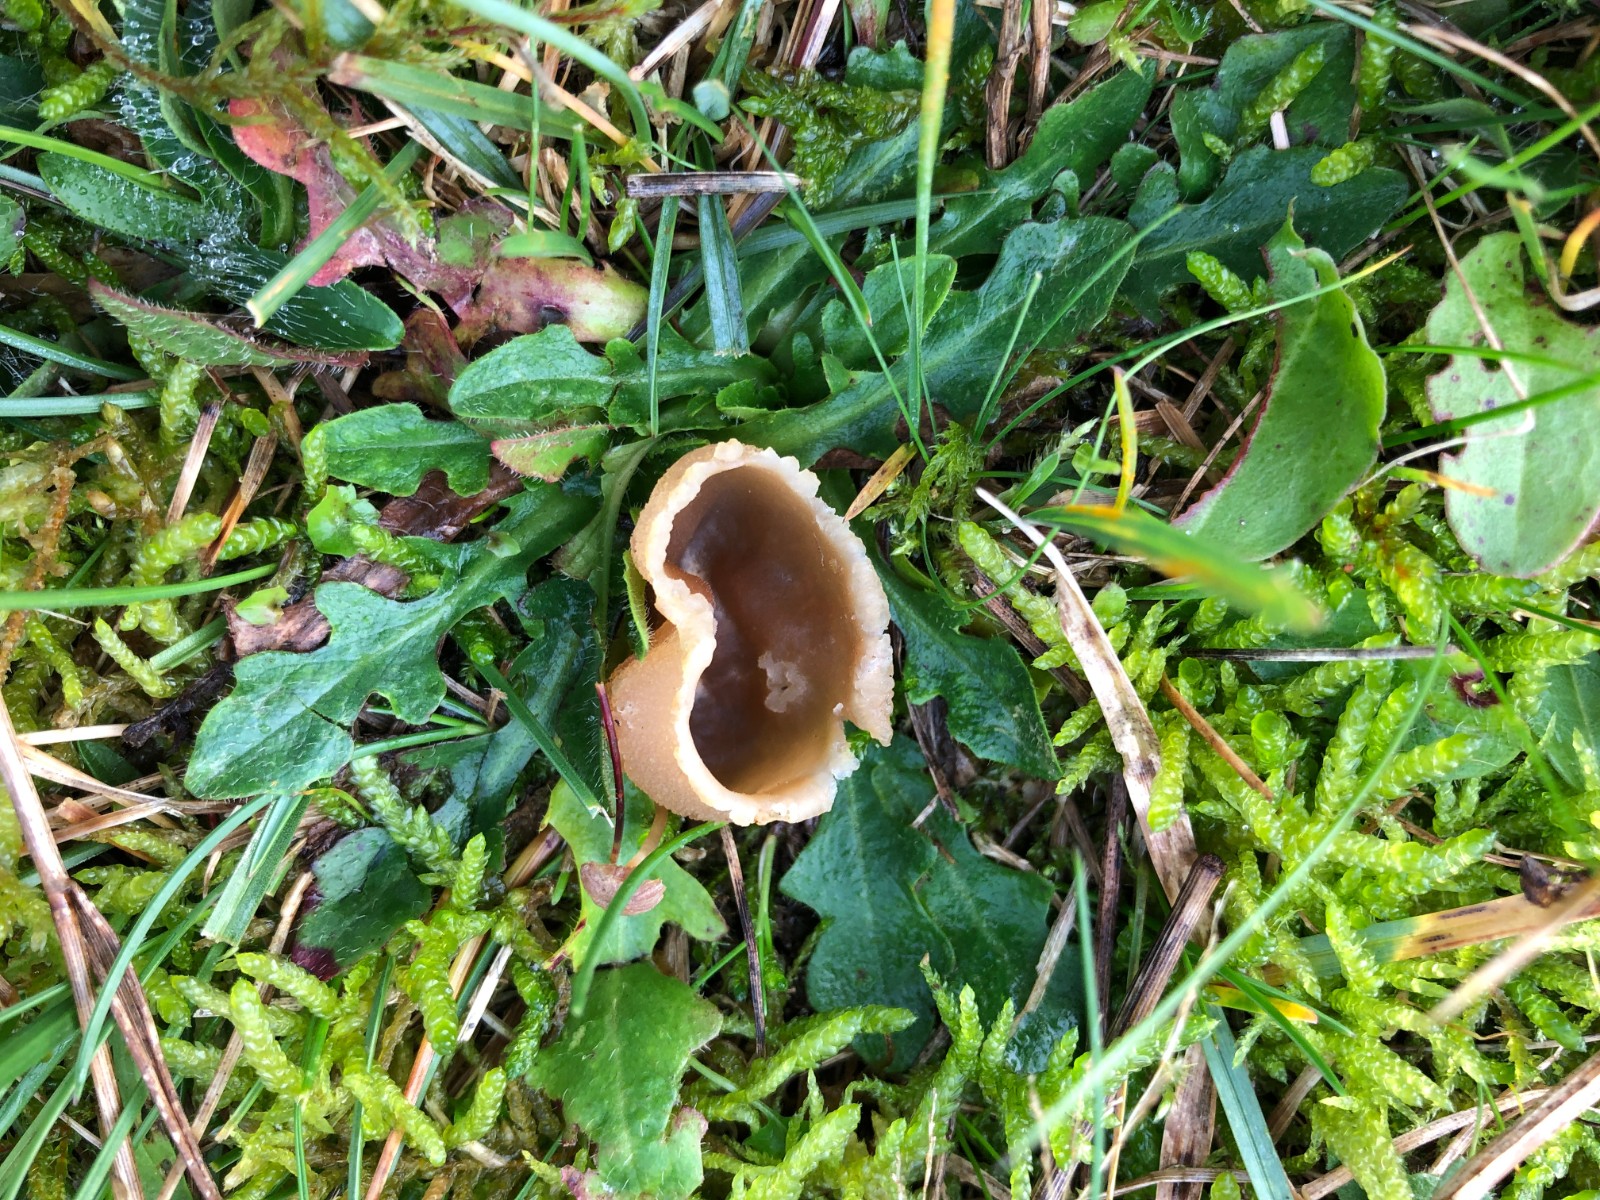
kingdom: Fungi
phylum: Ascomycota
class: Pezizomycetes
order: Pezizales
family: Pezizaceae
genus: Peziza
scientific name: Peziza
